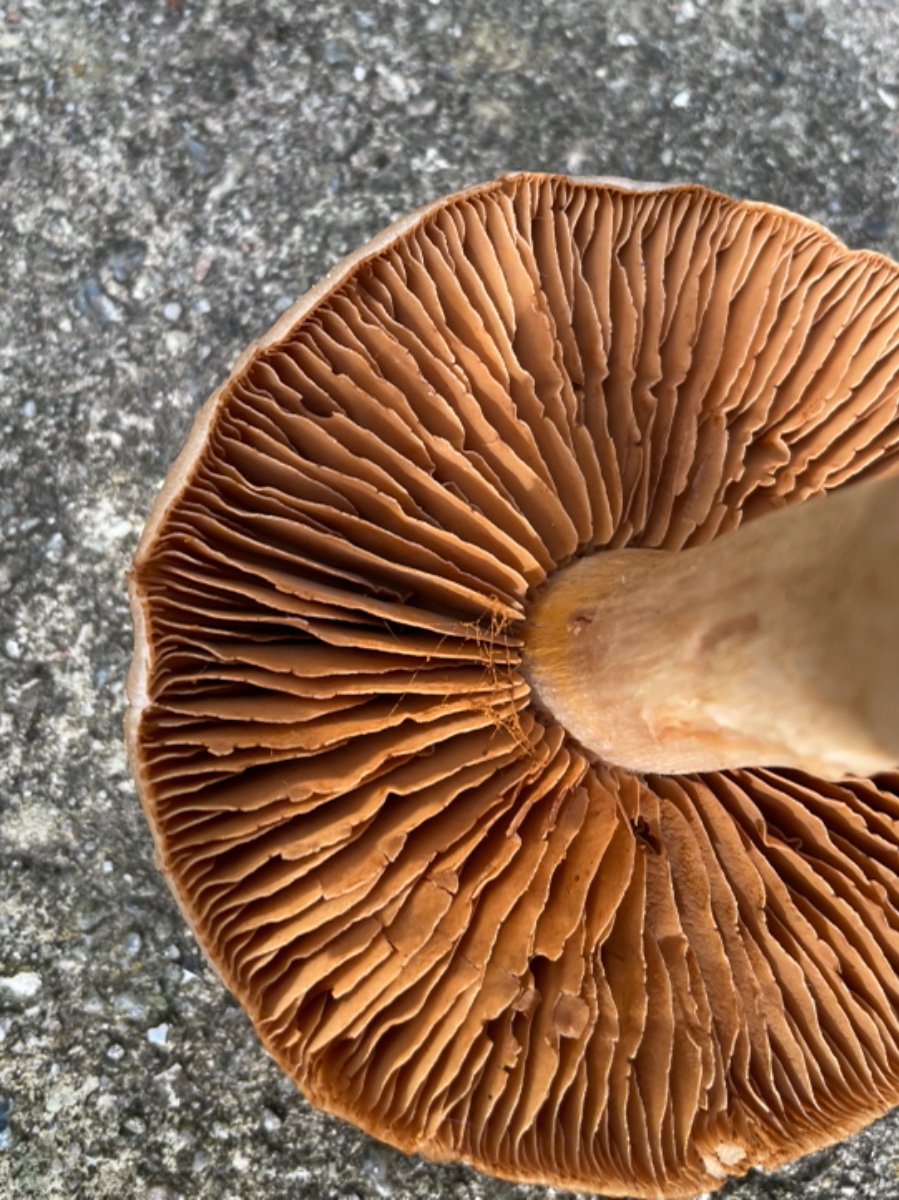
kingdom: Fungi
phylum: Basidiomycota
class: Agaricomycetes
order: Agaricales
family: Cortinariaceae
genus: Cortinarius
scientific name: Cortinarius
